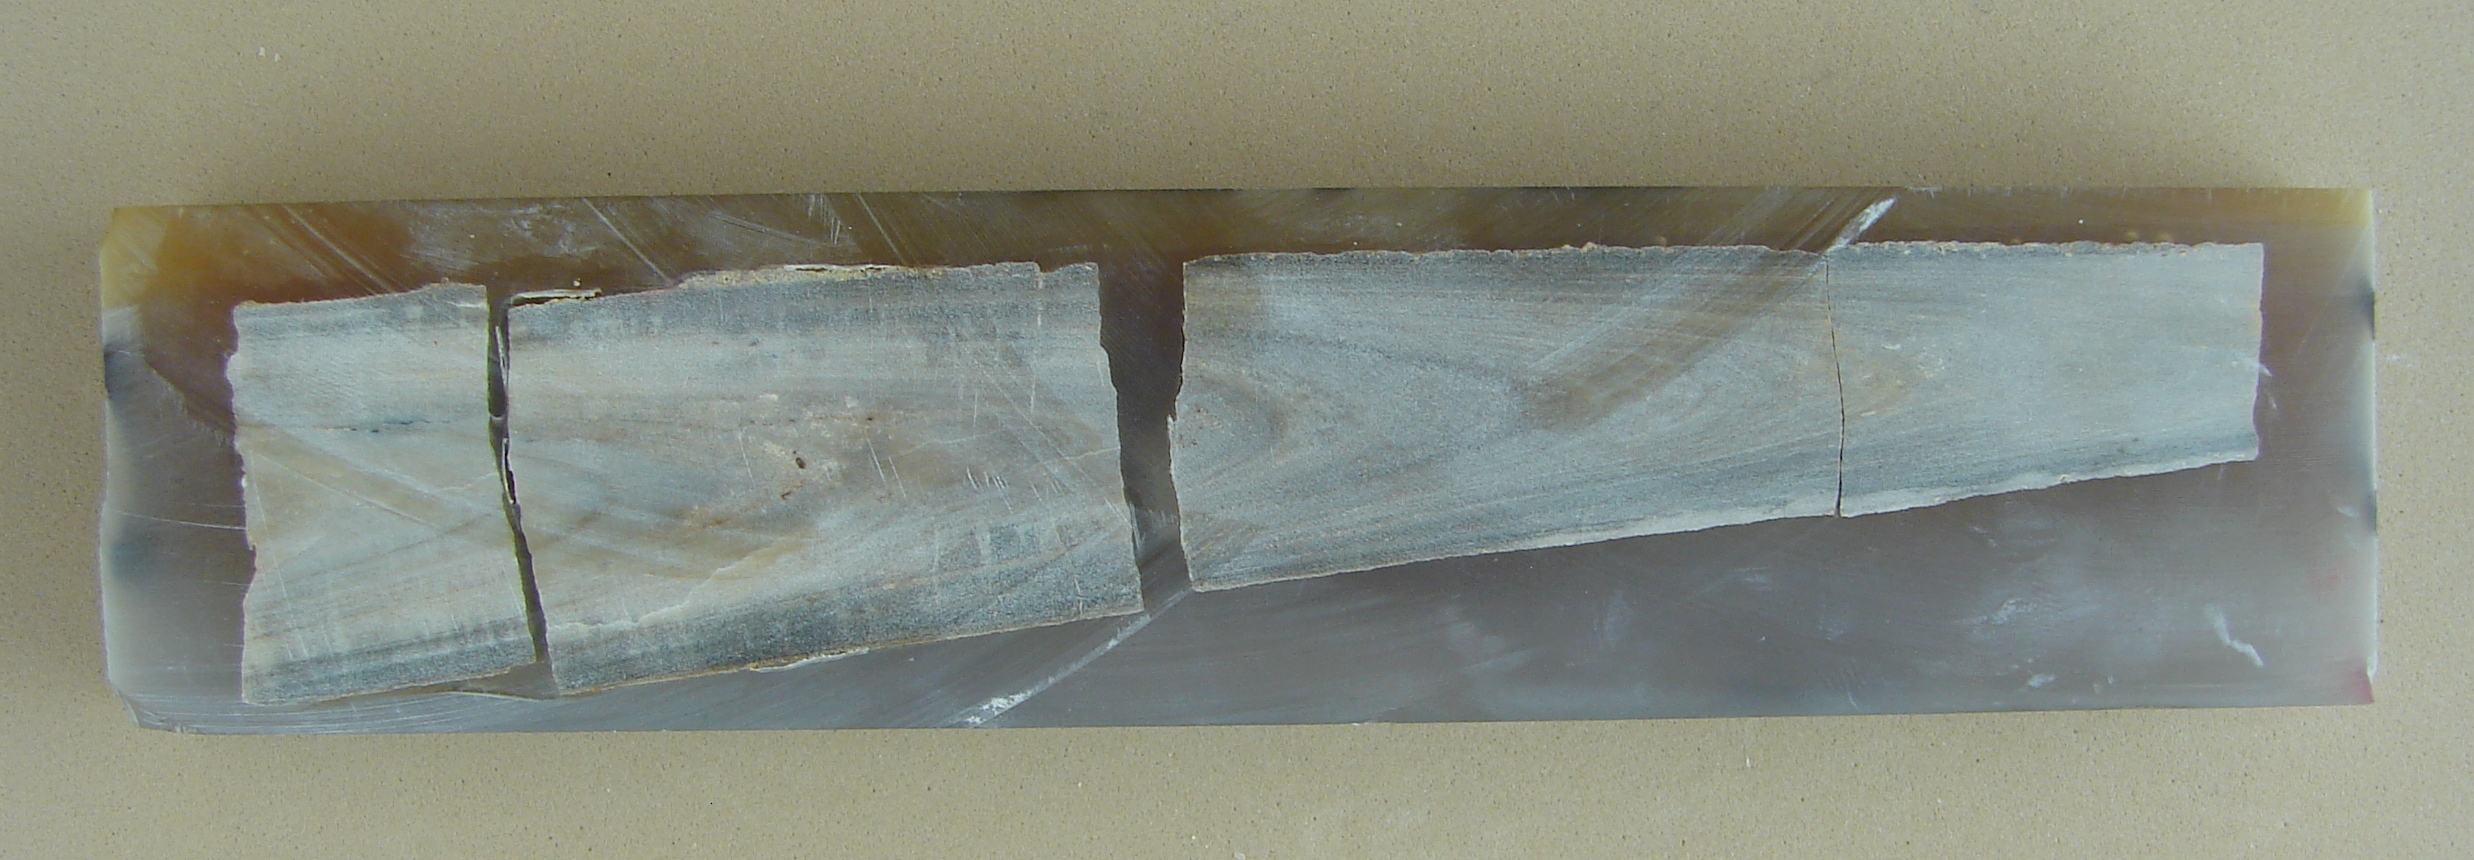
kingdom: Animalia
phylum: Mollusca
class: Cephalopoda
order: Belemnitida
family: Megateuthididae
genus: Megateuthis
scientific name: Megateuthis
